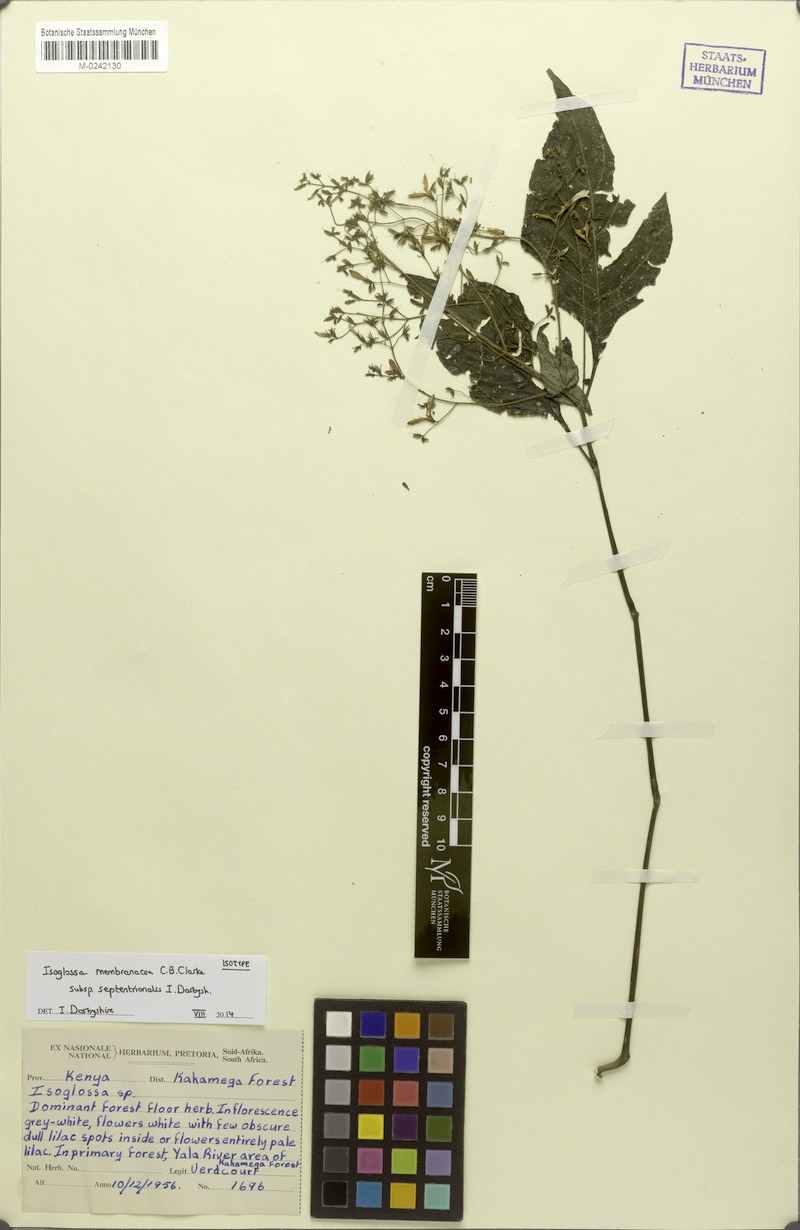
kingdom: Plantae
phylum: Tracheophyta
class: Magnoliopsida
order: Lamiales
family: Acanthaceae
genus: Isoglossa
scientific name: Isoglossa membranacea
